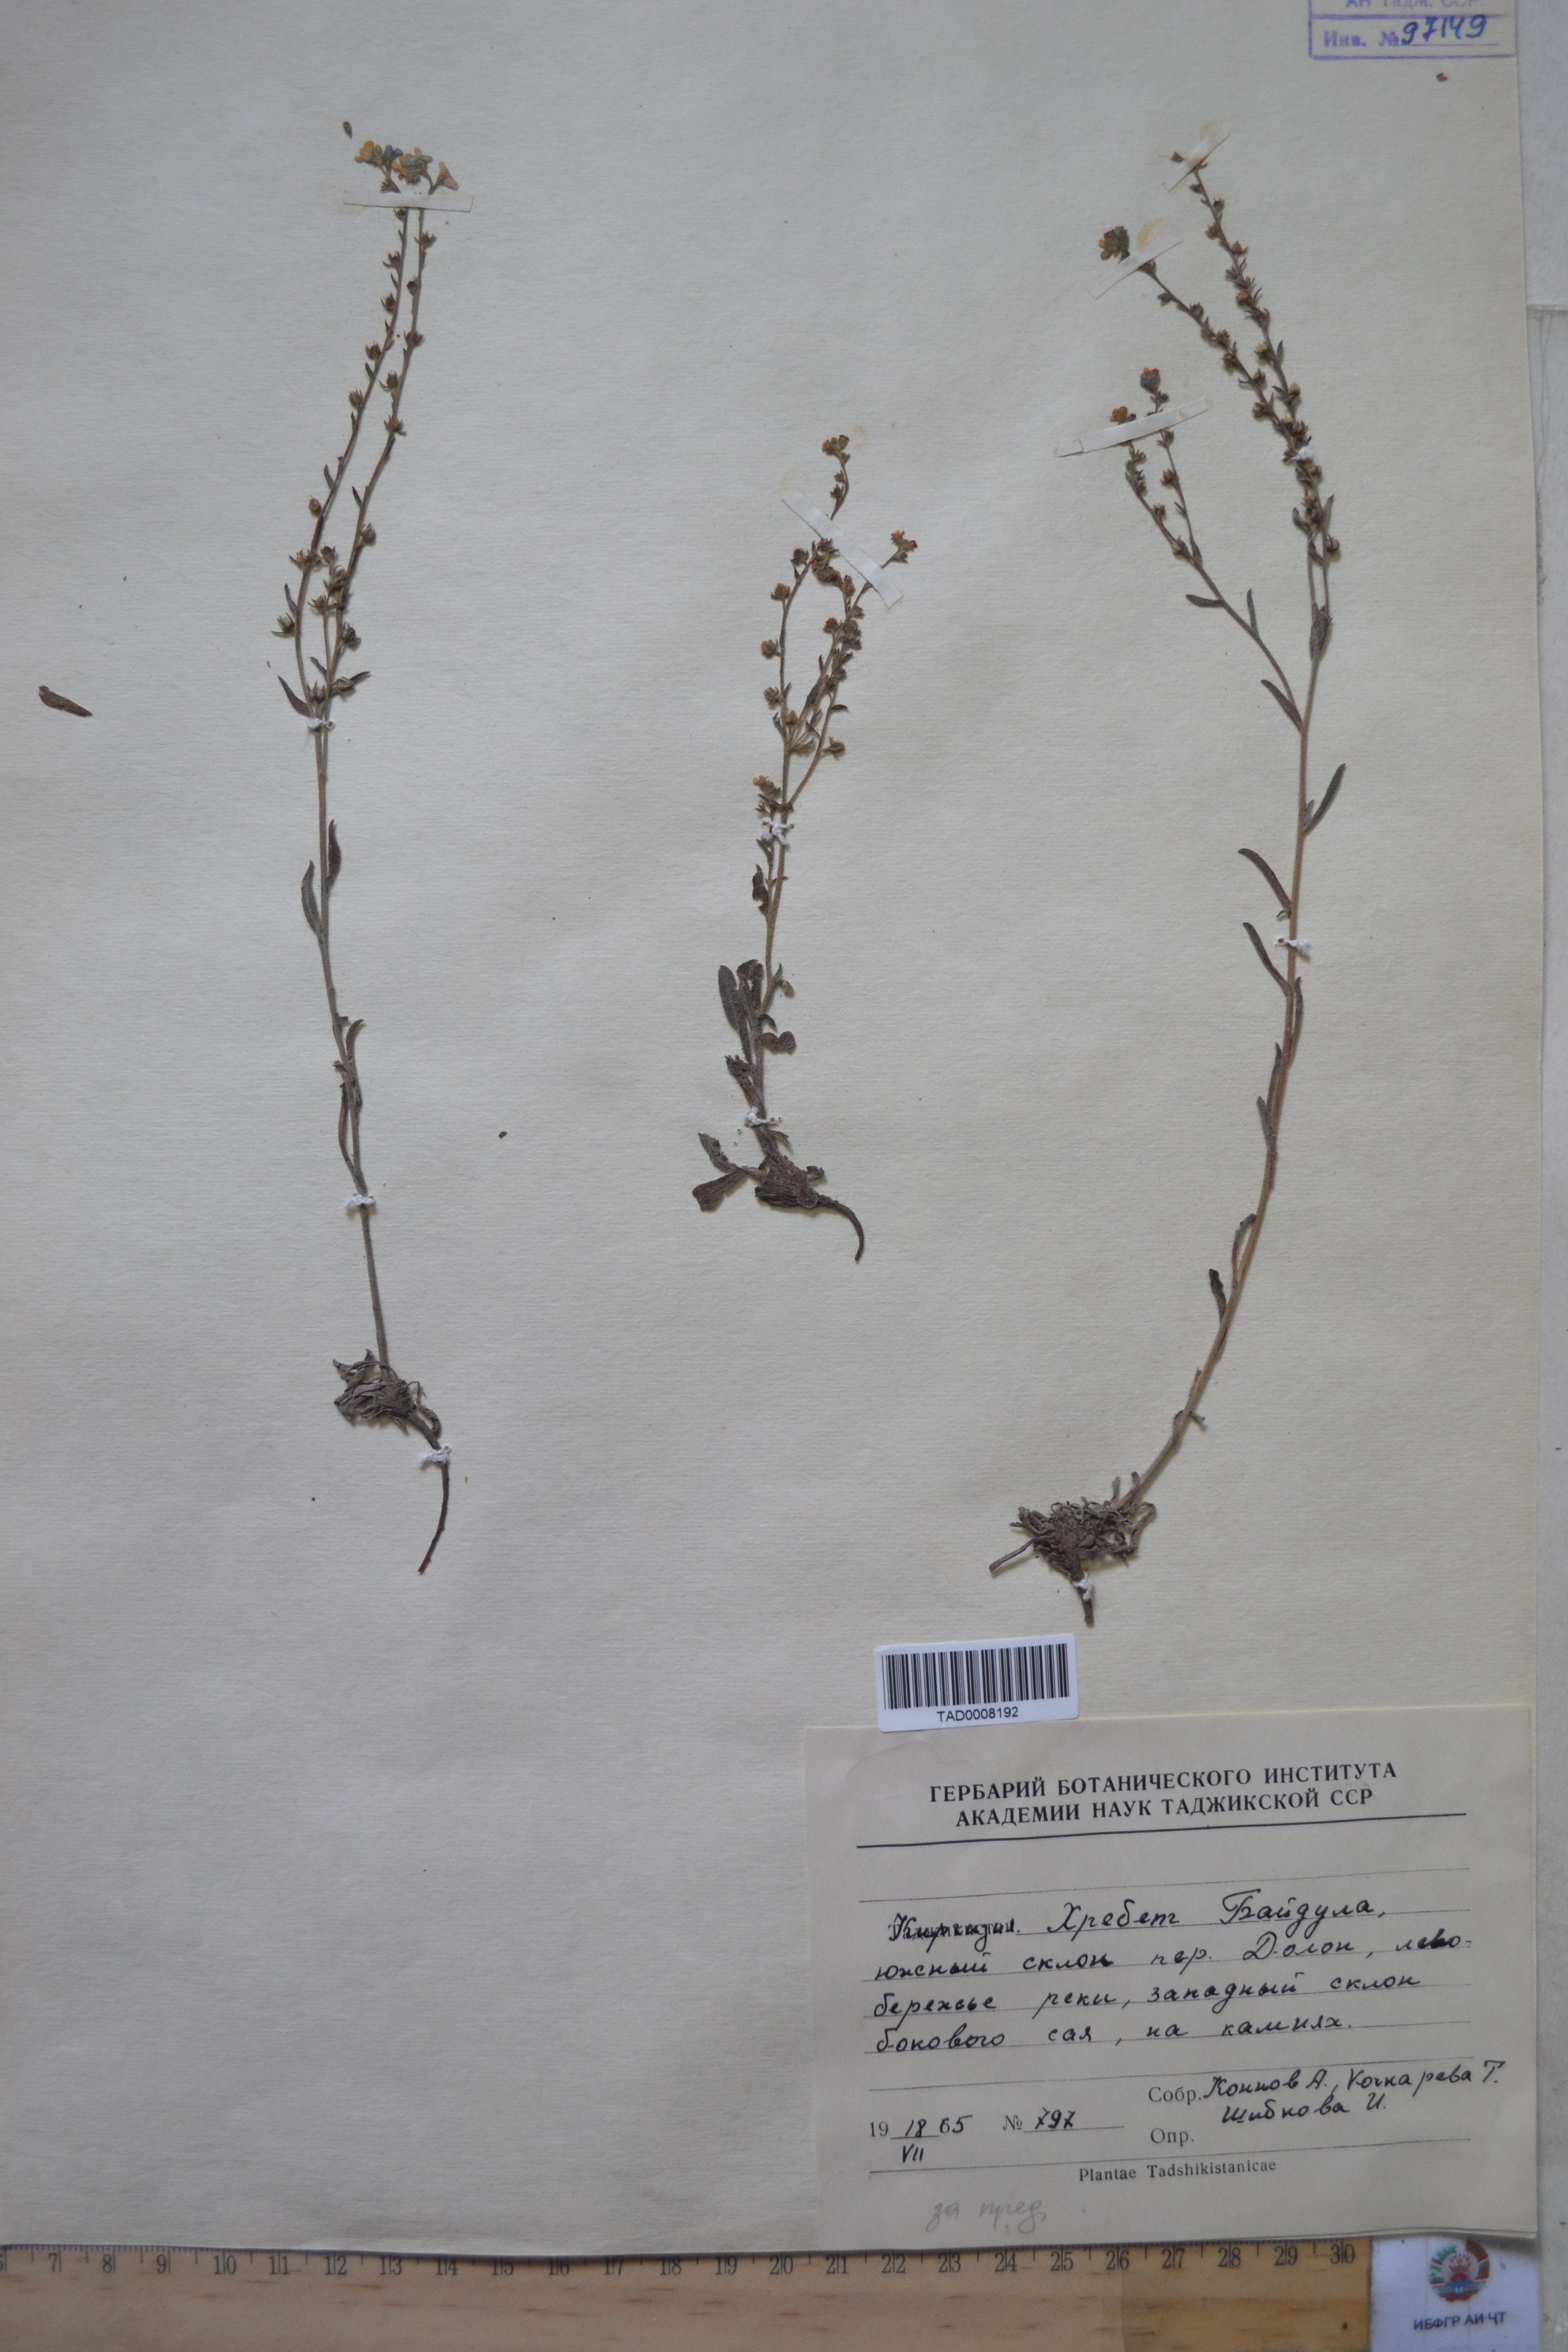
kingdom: Plantae
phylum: Tracheophyta
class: Magnoliopsida
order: Boraginales
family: Boraginaceae
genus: Lappula
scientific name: Lappula brachycentra
